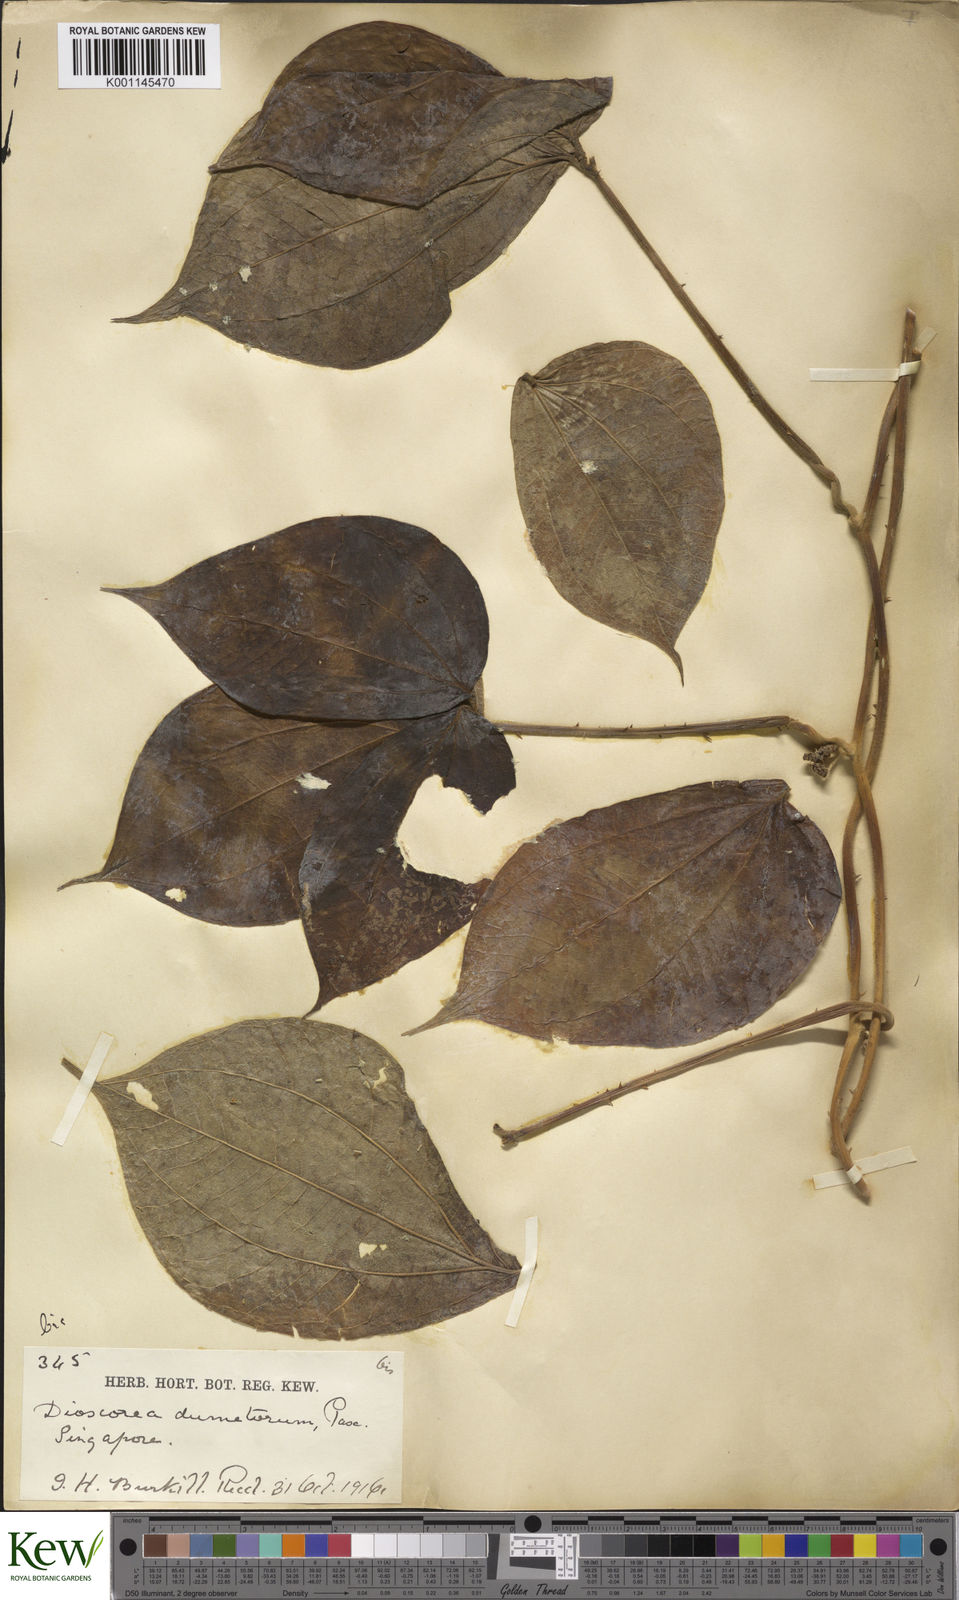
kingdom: Plantae
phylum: Tracheophyta
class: Liliopsida
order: Dioscoreales
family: Dioscoreaceae
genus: Dioscorea
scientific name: Dioscorea dumetorum
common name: African bitter yam
